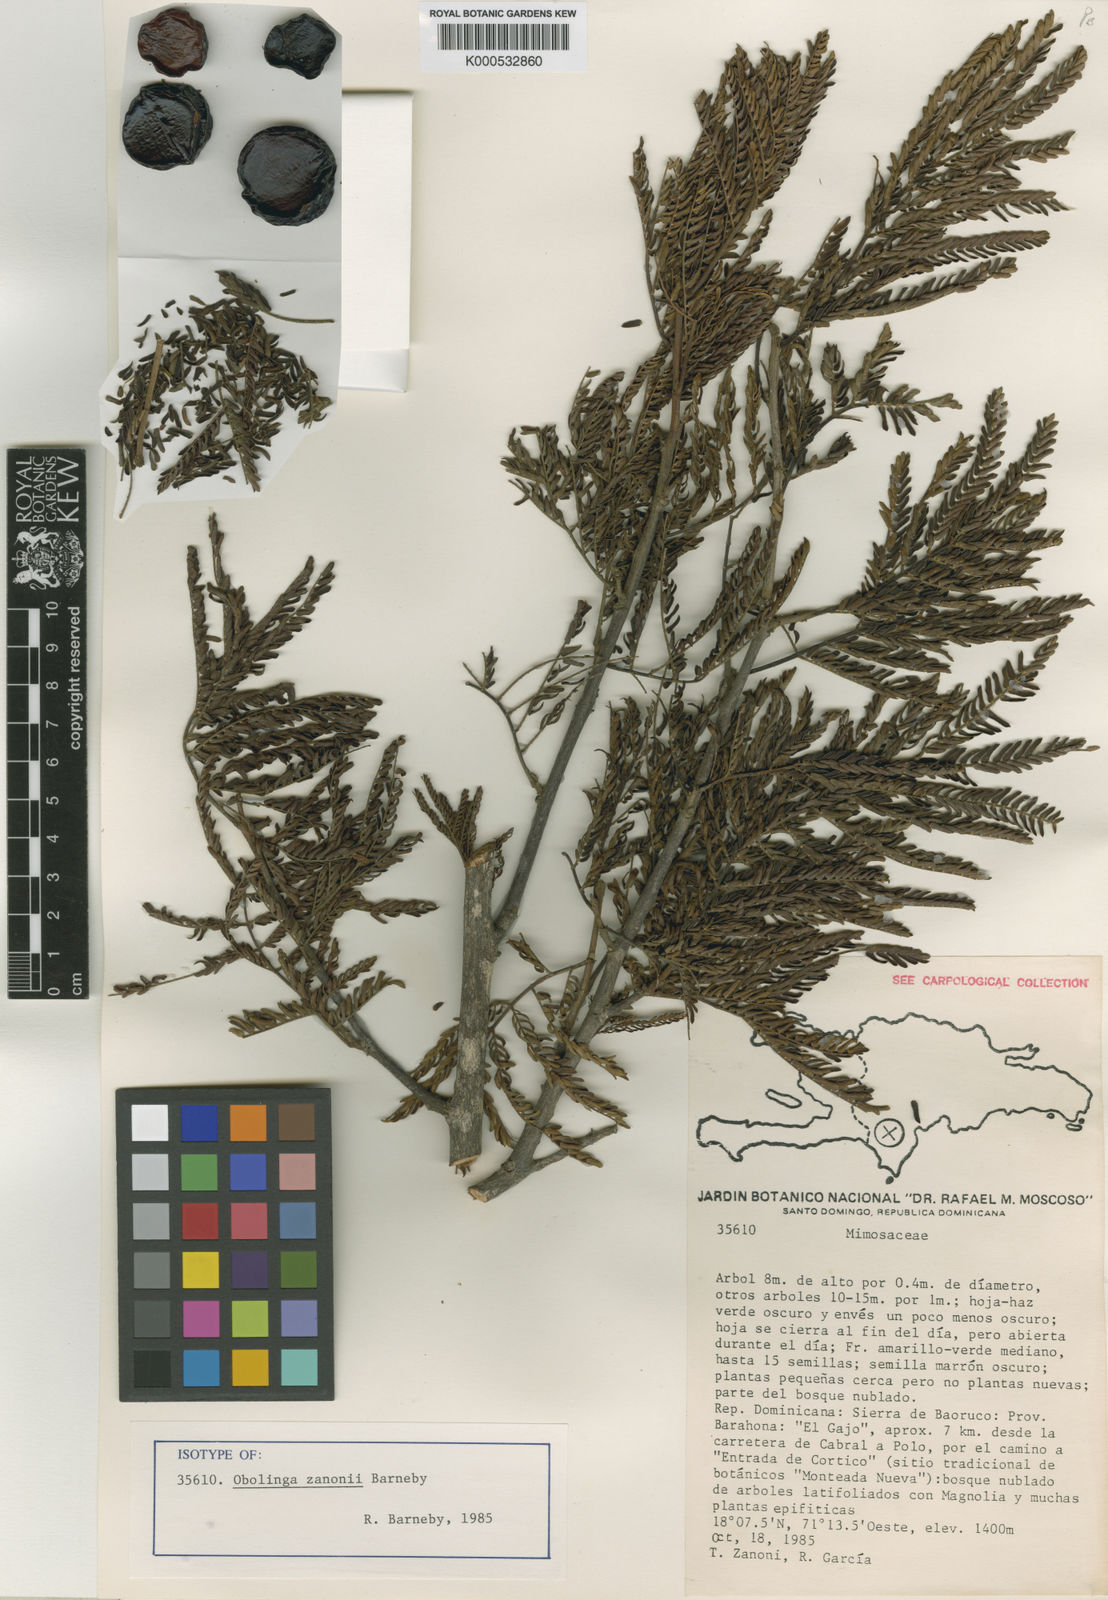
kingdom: Plantae
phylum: Tracheophyta
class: Magnoliopsida
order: Fabales
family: Fabaceae
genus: Cojoba
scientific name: Cojoba zanonii
